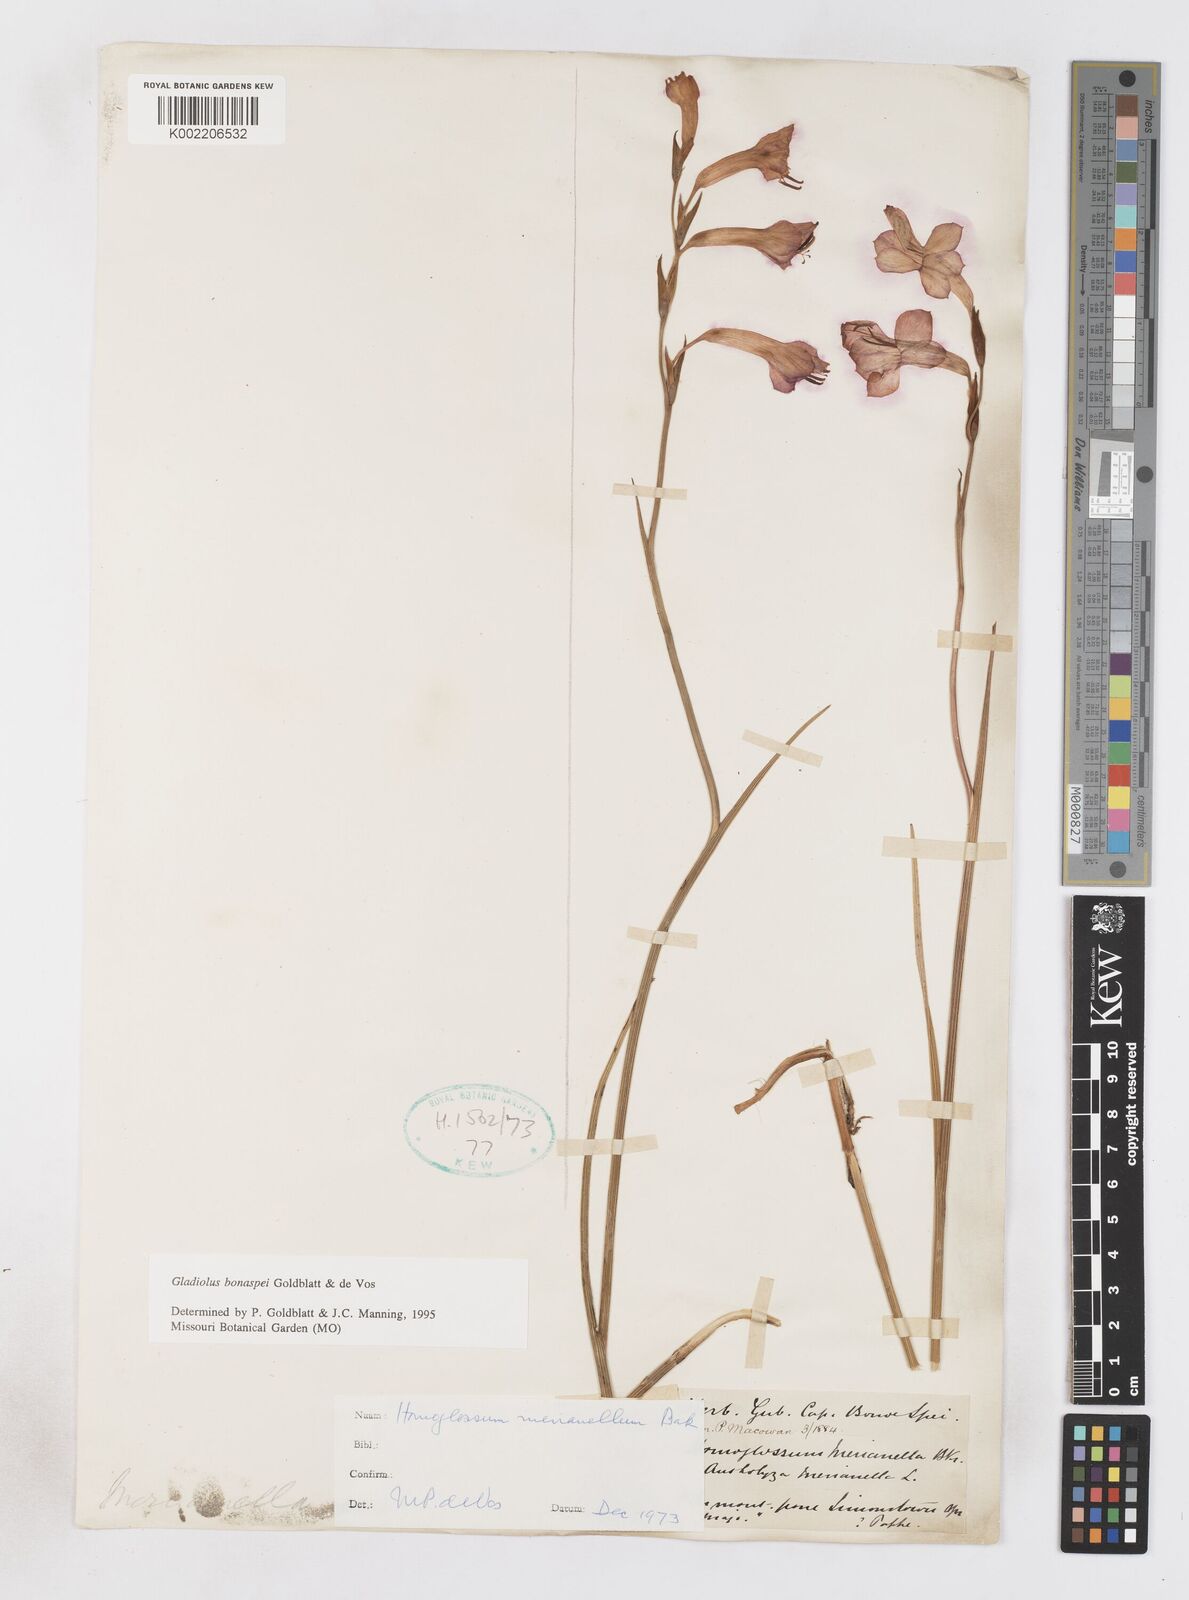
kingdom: Plantae
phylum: Tracheophyta
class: Liliopsida
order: Asparagales
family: Iridaceae
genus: Gladiolus
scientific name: Gladiolus merianellus
